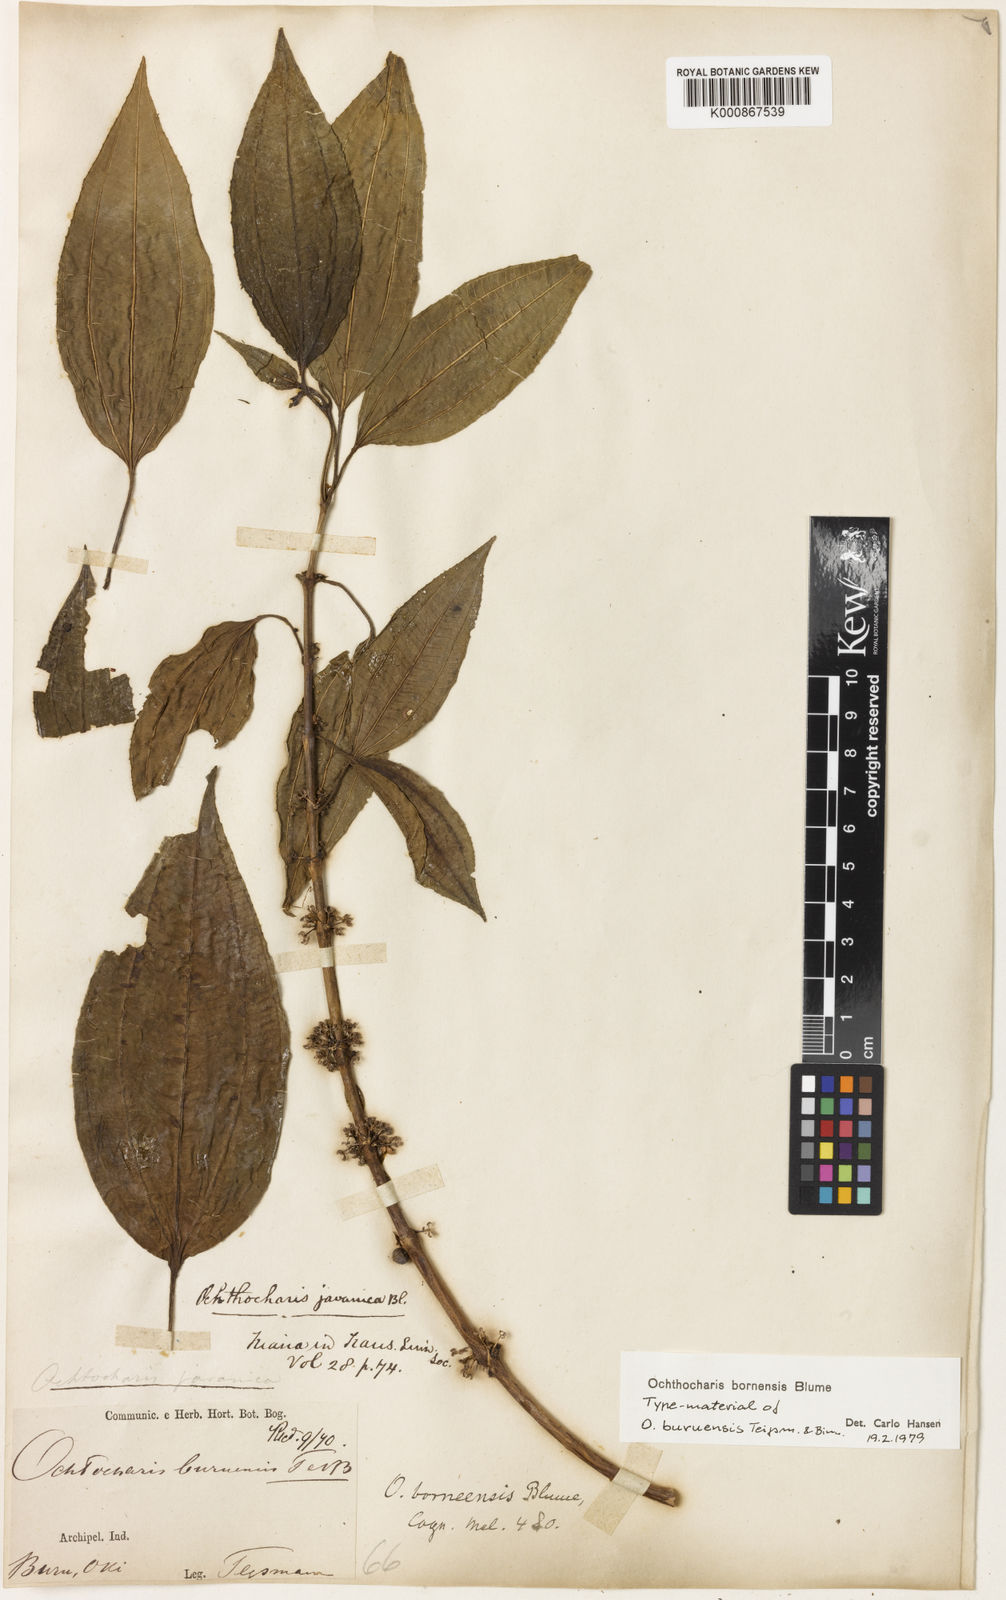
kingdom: Plantae
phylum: Tracheophyta
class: Magnoliopsida
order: Myrtales
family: Melastomataceae
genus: Ochthocharis
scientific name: Ochthocharis bornensis
